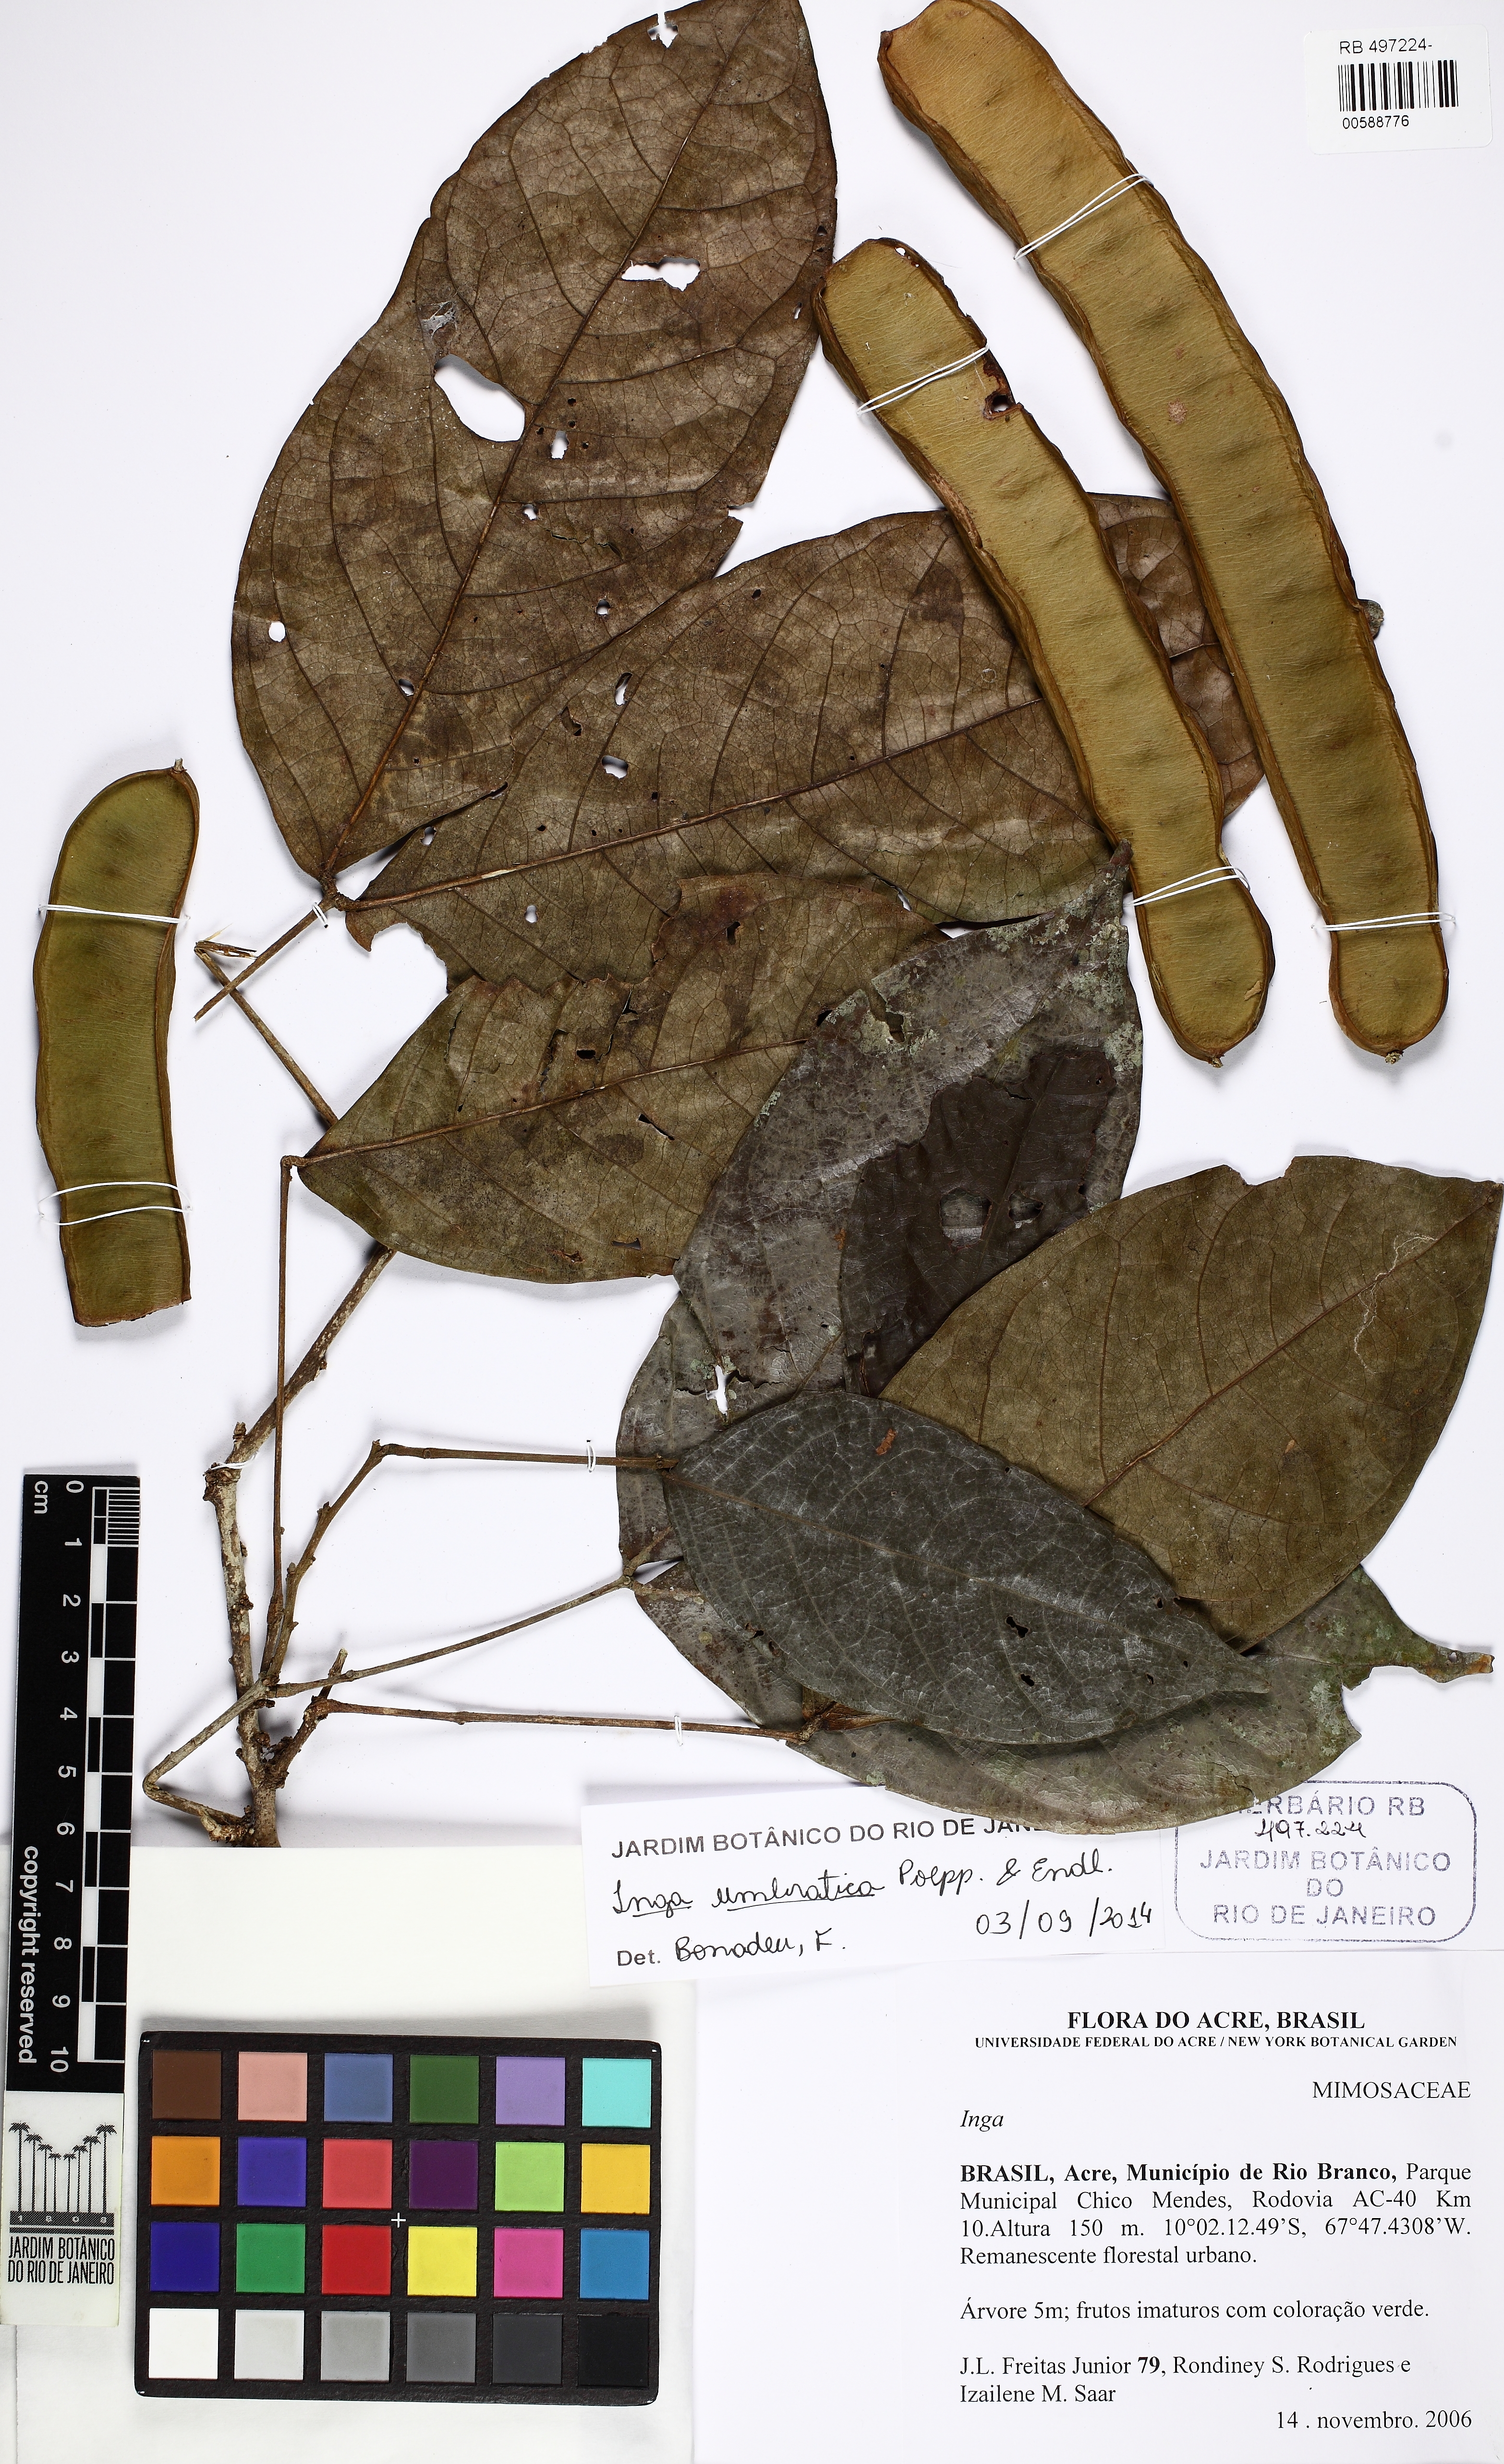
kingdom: Plantae
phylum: Tracheophyta
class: Magnoliopsida
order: Fabales
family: Fabaceae
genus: Inga
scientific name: Inga umbratica
